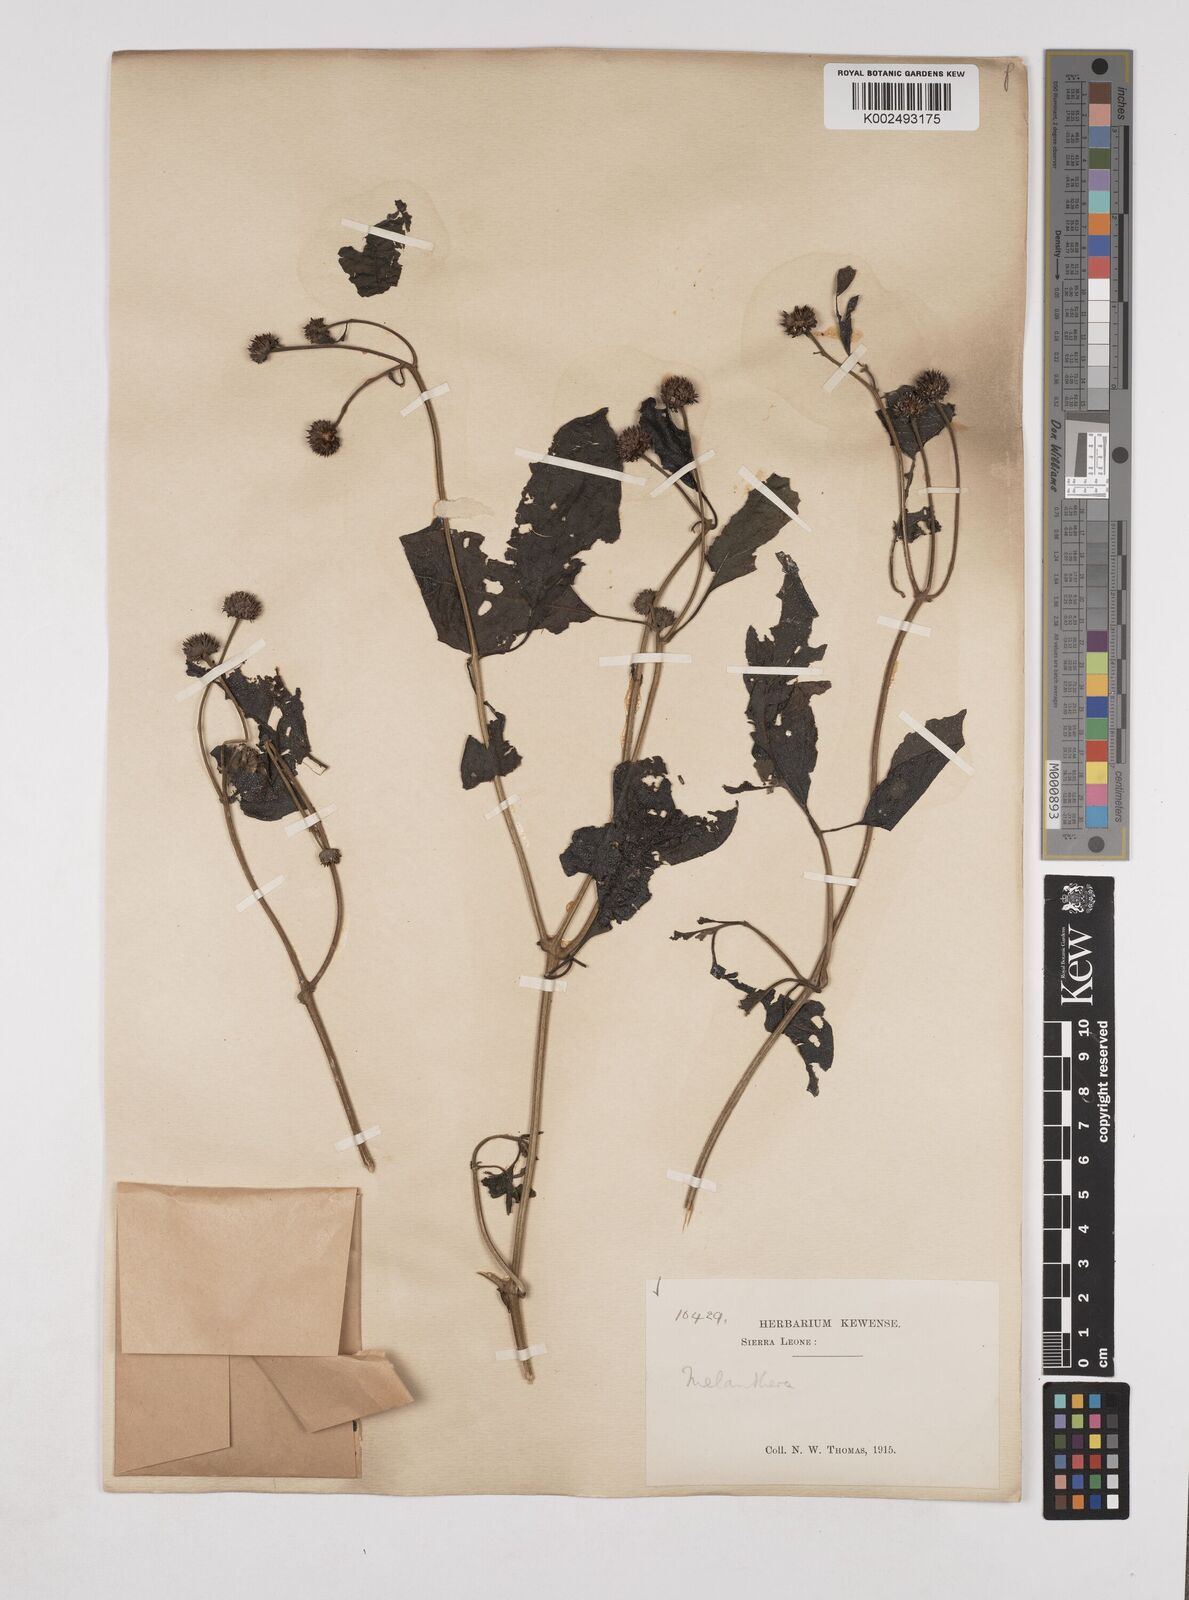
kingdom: Plantae
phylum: Tracheophyta
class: Magnoliopsida
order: Asterales
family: Asteraceae
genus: Lipotriche
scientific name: Lipotriche scandens
